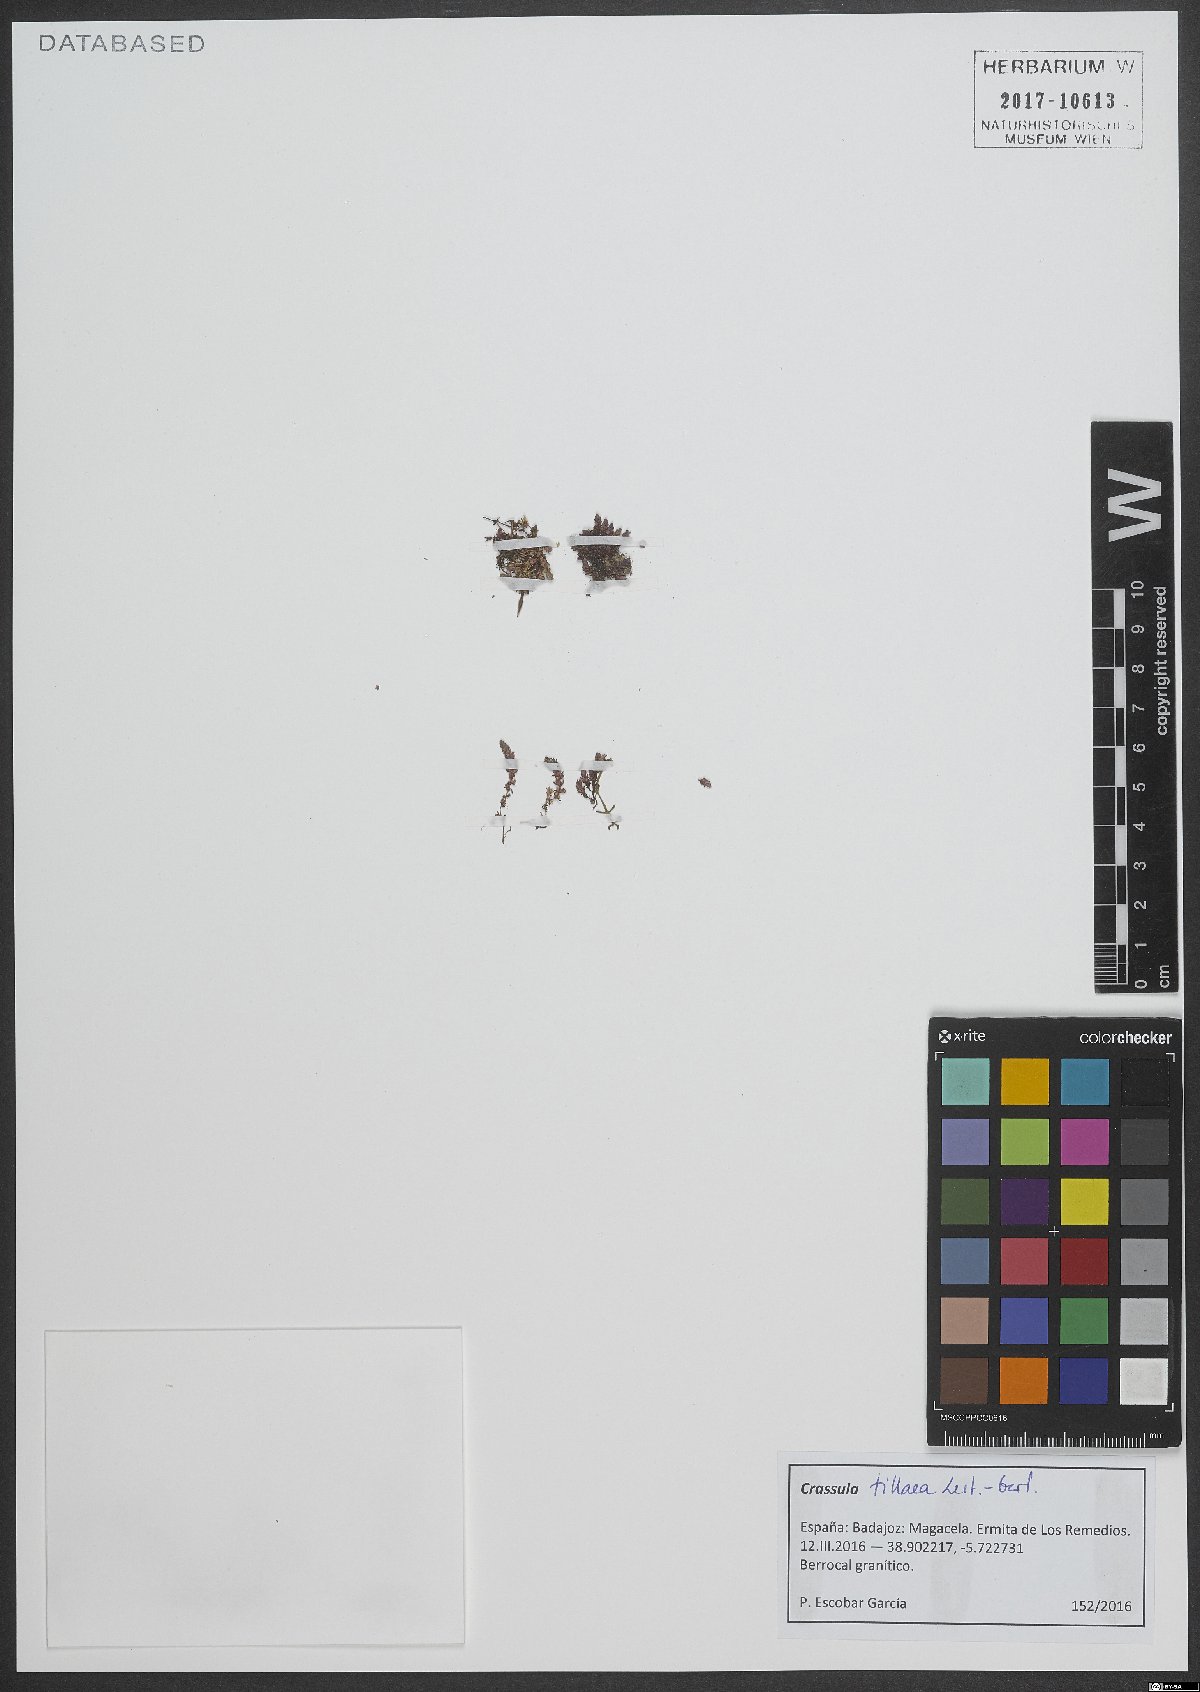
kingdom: Plantae
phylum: Tracheophyta
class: Magnoliopsida
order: Saxifragales
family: Crassulaceae
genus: Crassula
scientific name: Crassula tillaea
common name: Mossy stonecrop
